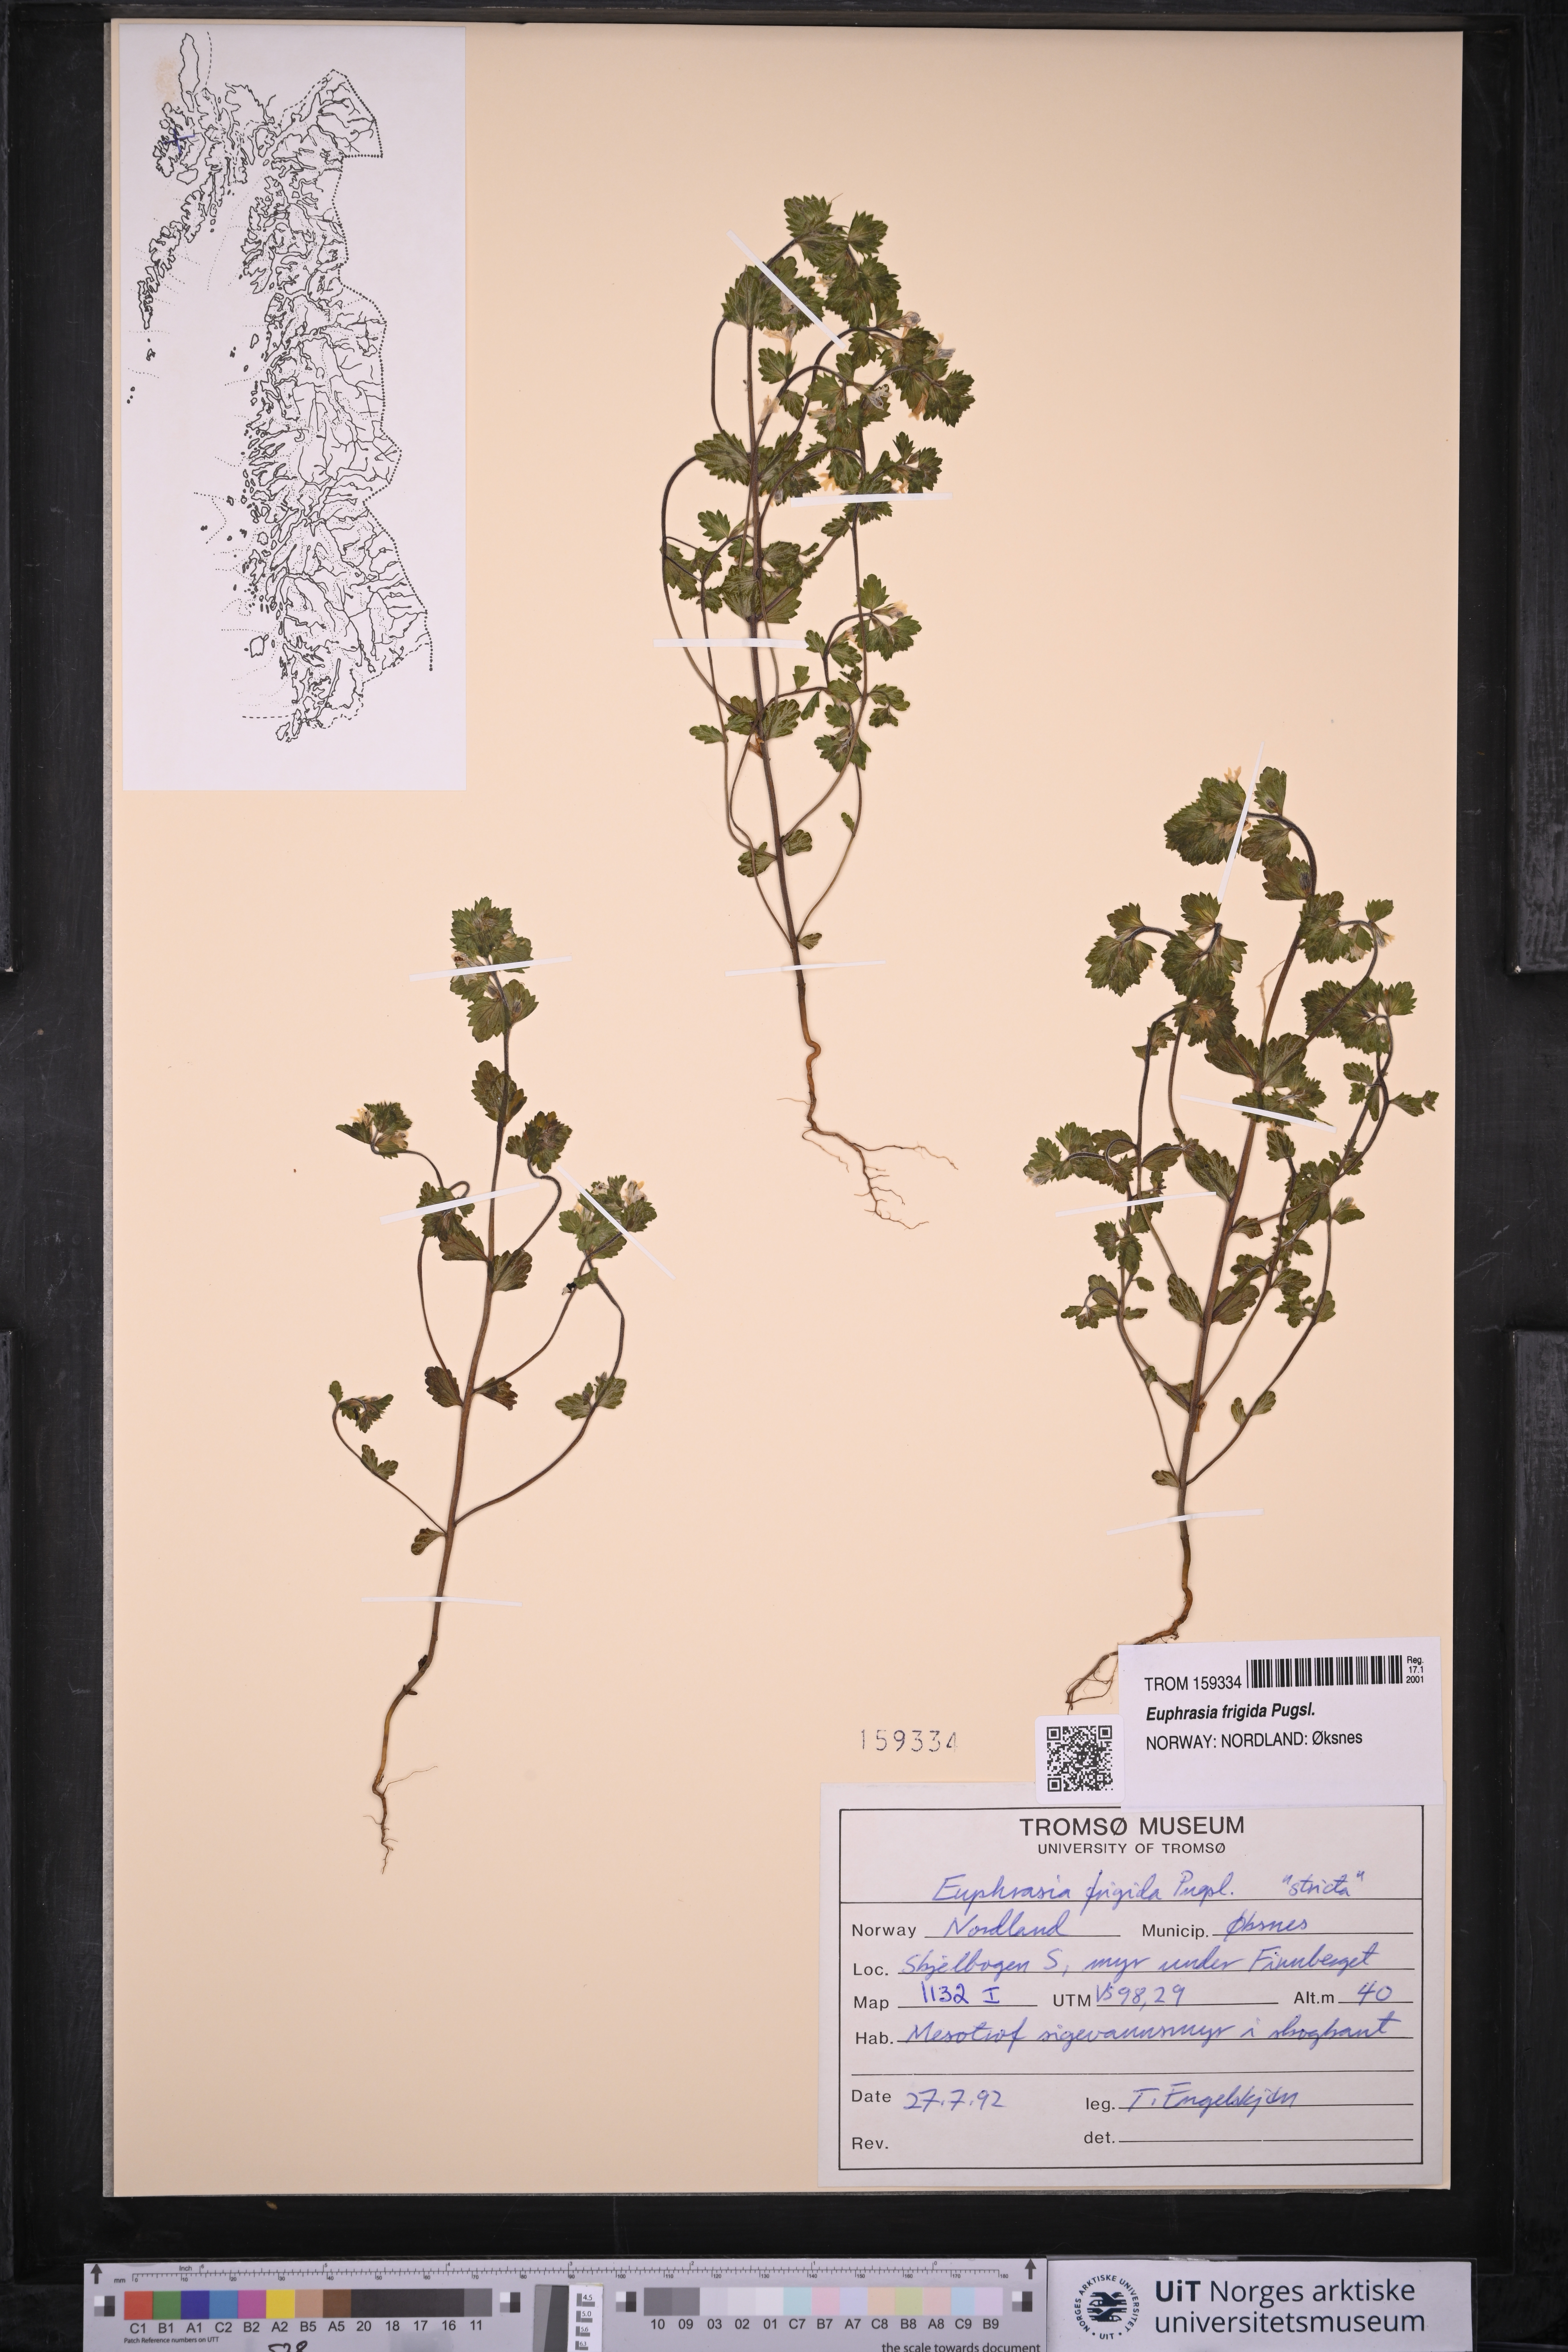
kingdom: Plantae
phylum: Tracheophyta
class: Magnoliopsida
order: Lamiales
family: Orobanchaceae
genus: Euphrasia
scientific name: Euphrasia frigida
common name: An eyebright
